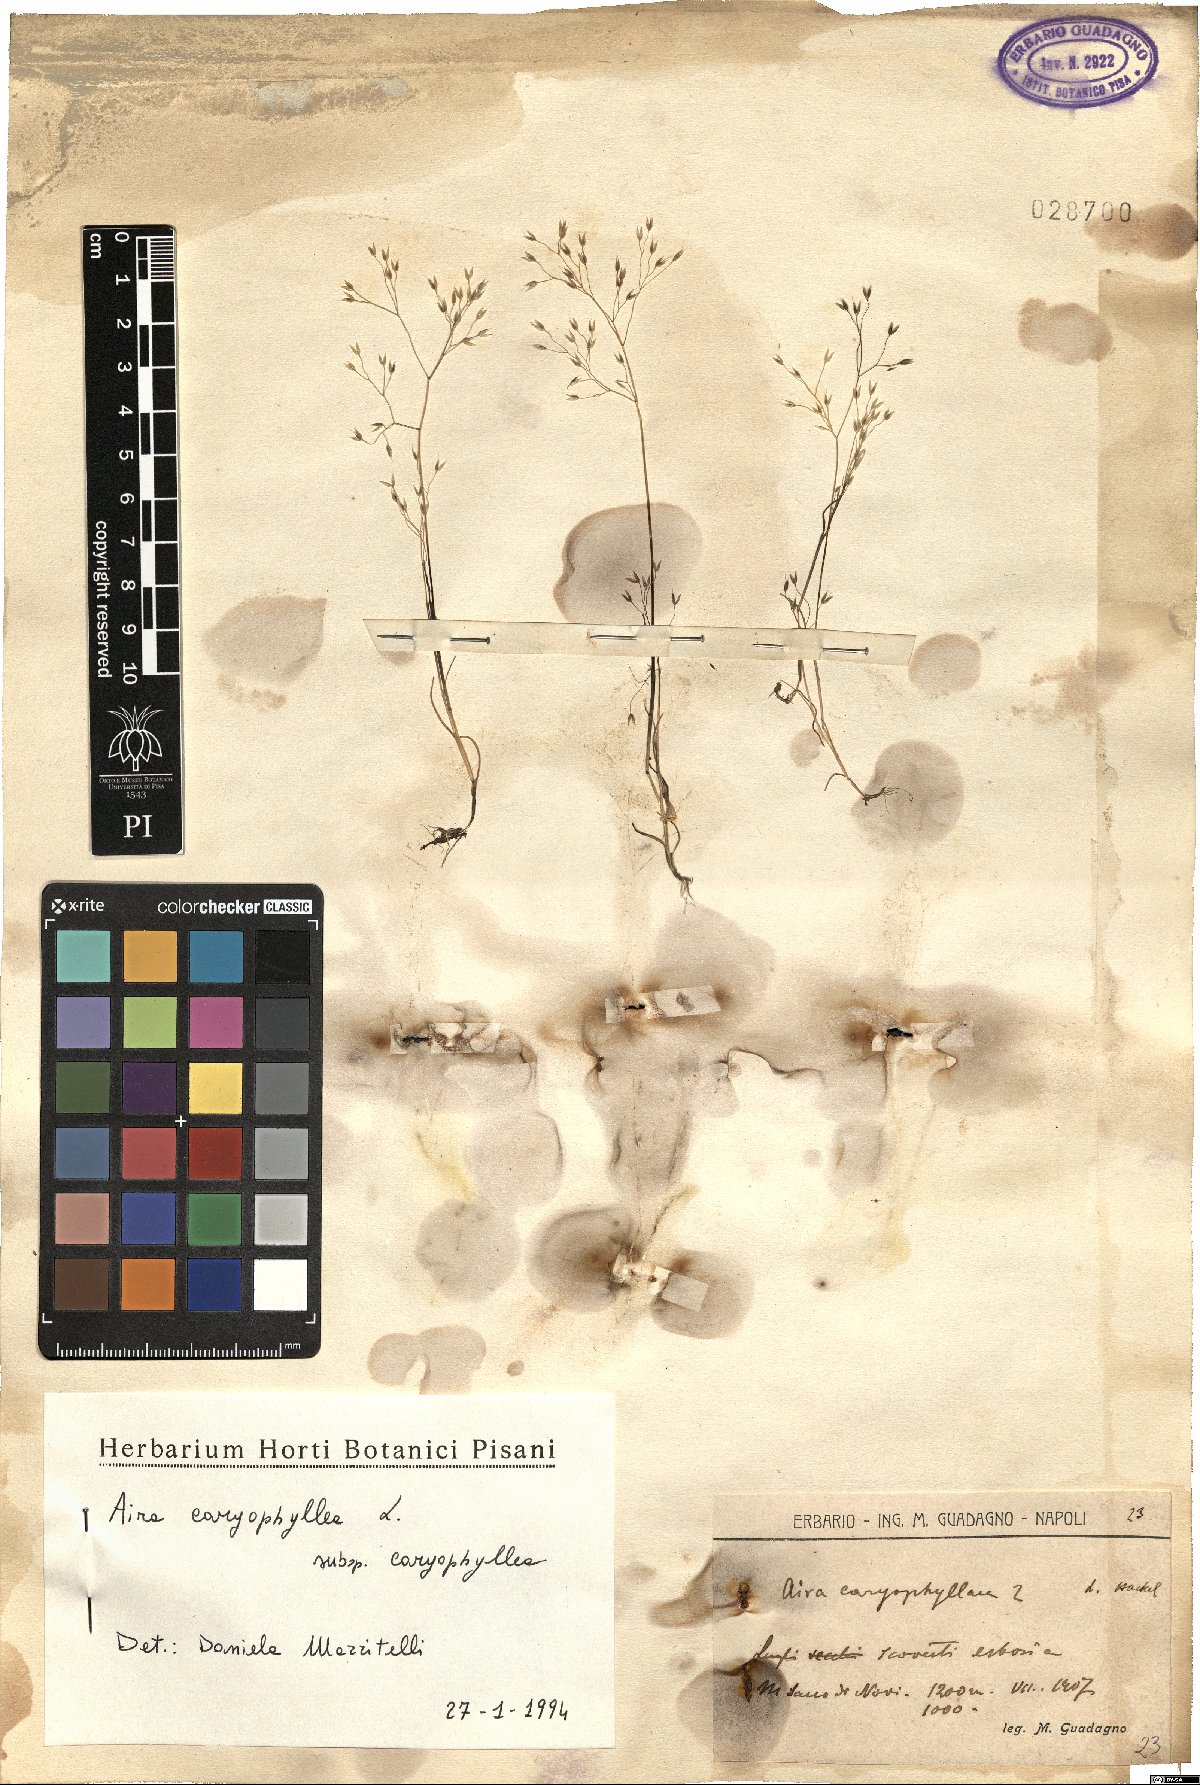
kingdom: Plantae
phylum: Tracheophyta
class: Liliopsida
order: Poales
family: Poaceae
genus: Aira
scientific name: Aira caryophyllea
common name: Silver hairgrass
